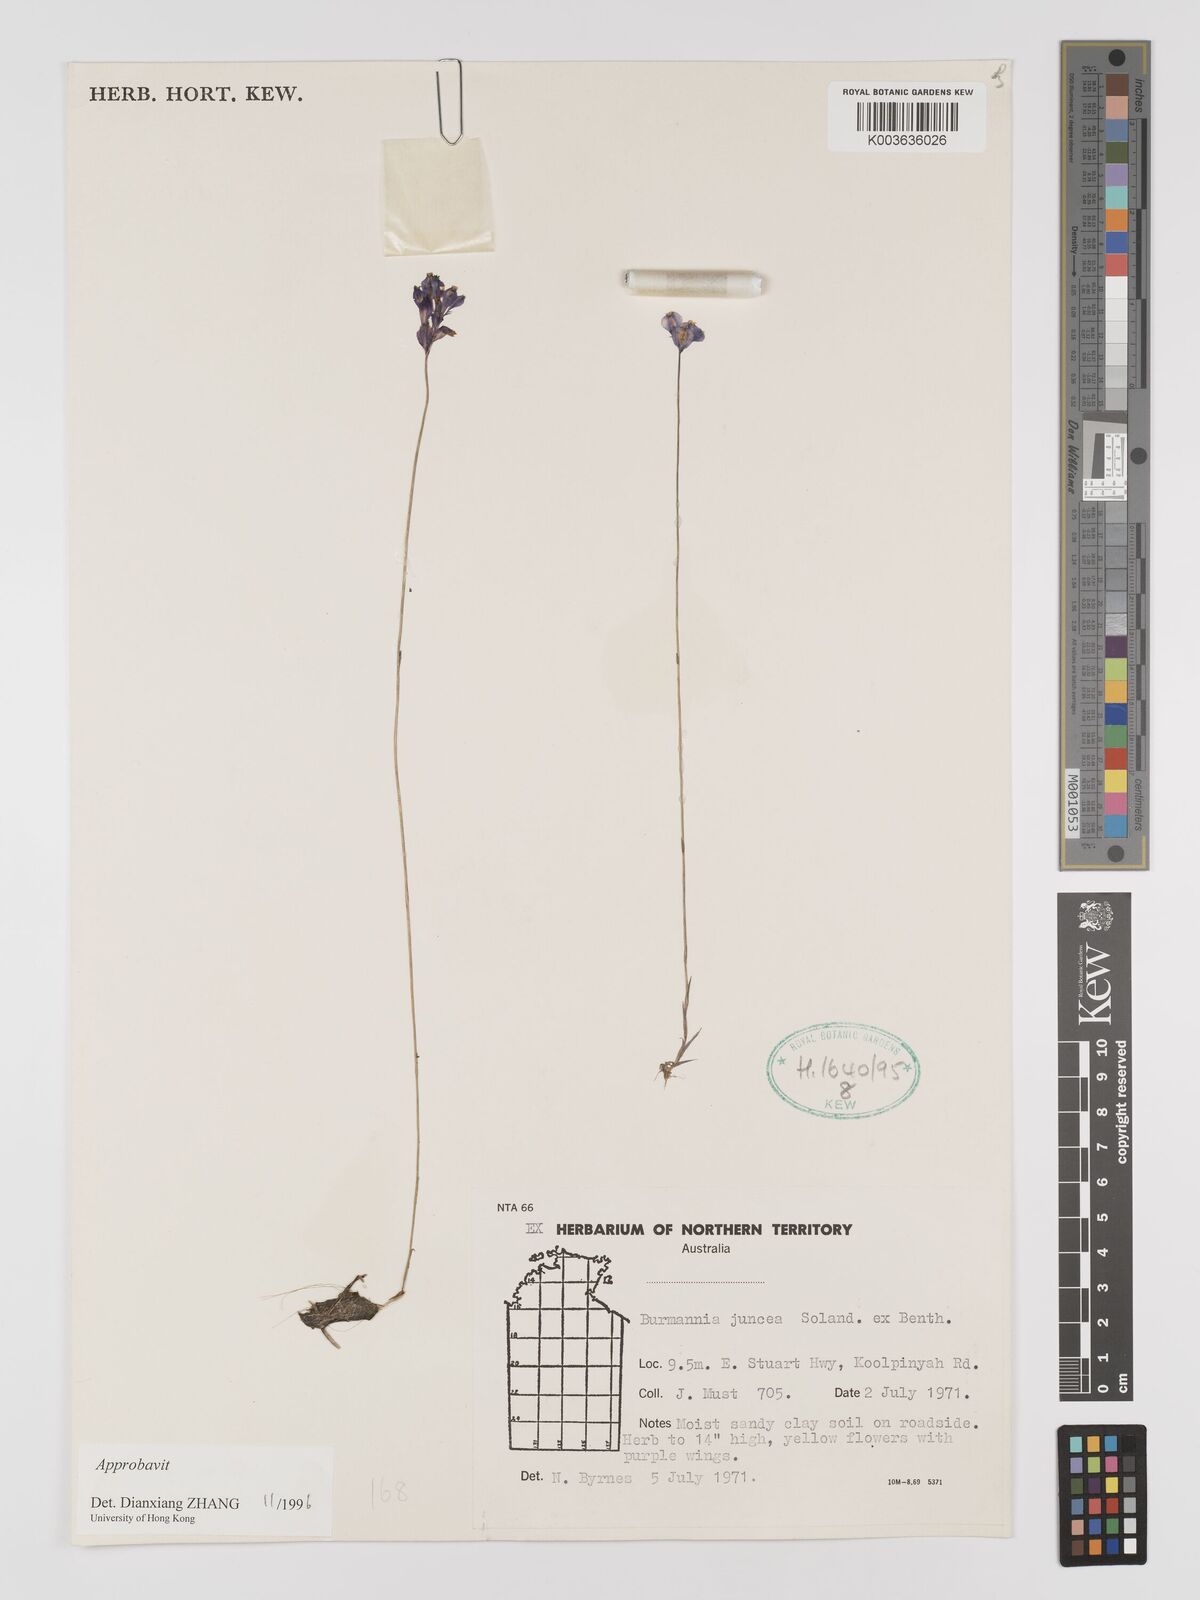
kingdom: Plantae
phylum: Tracheophyta
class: Liliopsida
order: Dioscoreales
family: Burmanniaceae
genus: Burmannia
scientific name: Burmannia juncea
